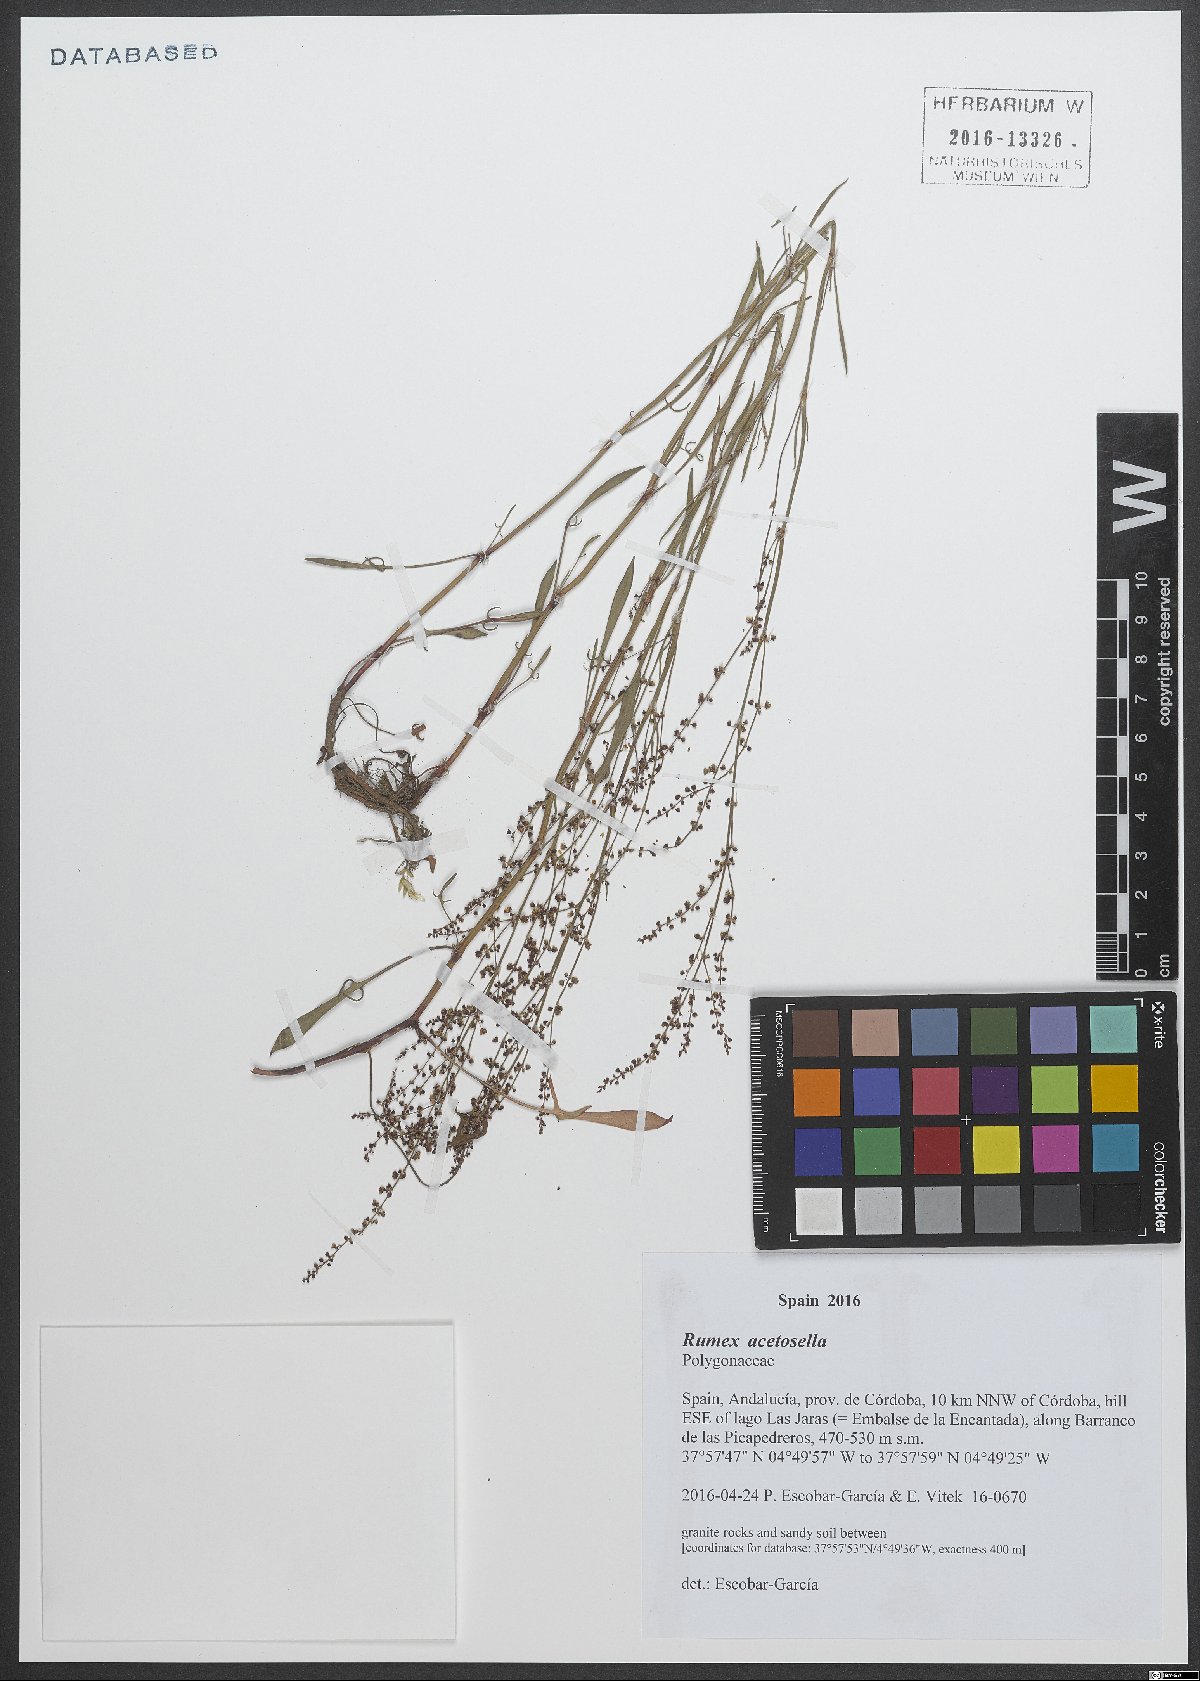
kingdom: Plantae
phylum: Tracheophyta
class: Magnoliopsida
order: Caryophyllales
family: Polygonaceae
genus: Rumex
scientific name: Rumex acetosella
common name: Common sheep sorrel
